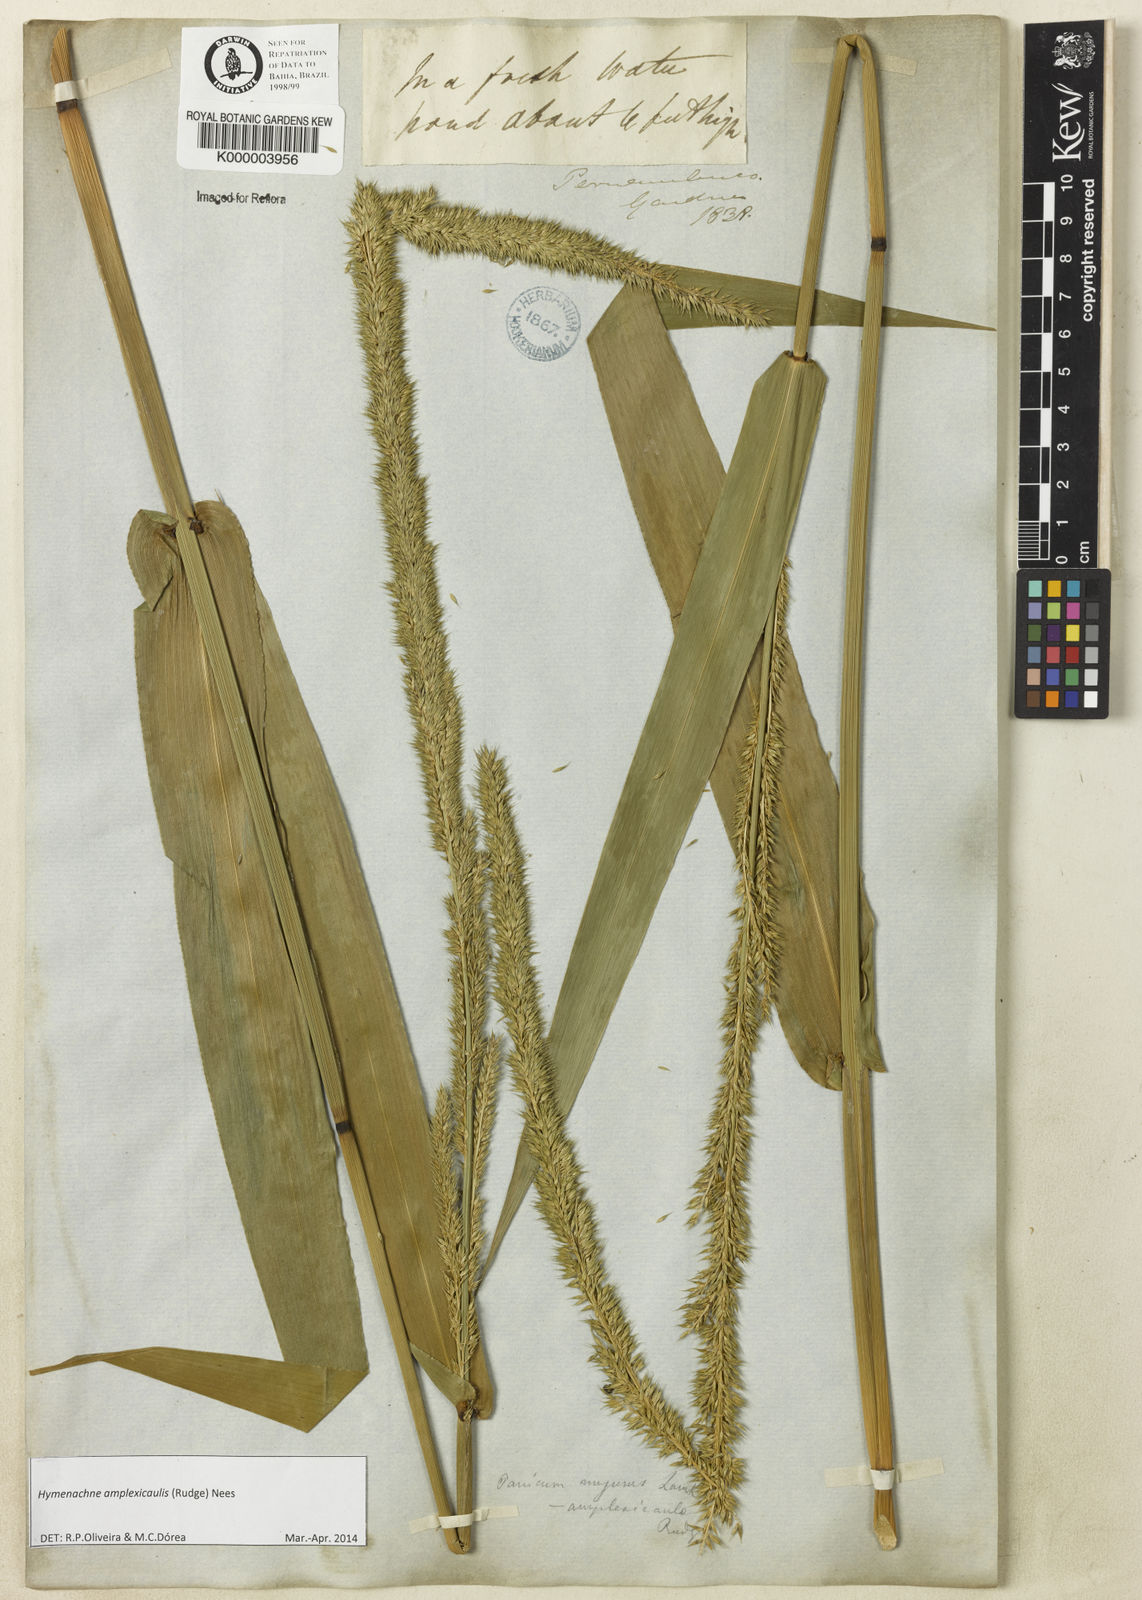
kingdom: Plantae
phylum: Tracheophyta
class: Liliopsida
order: Poales
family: Poaceae
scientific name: Poaceae
